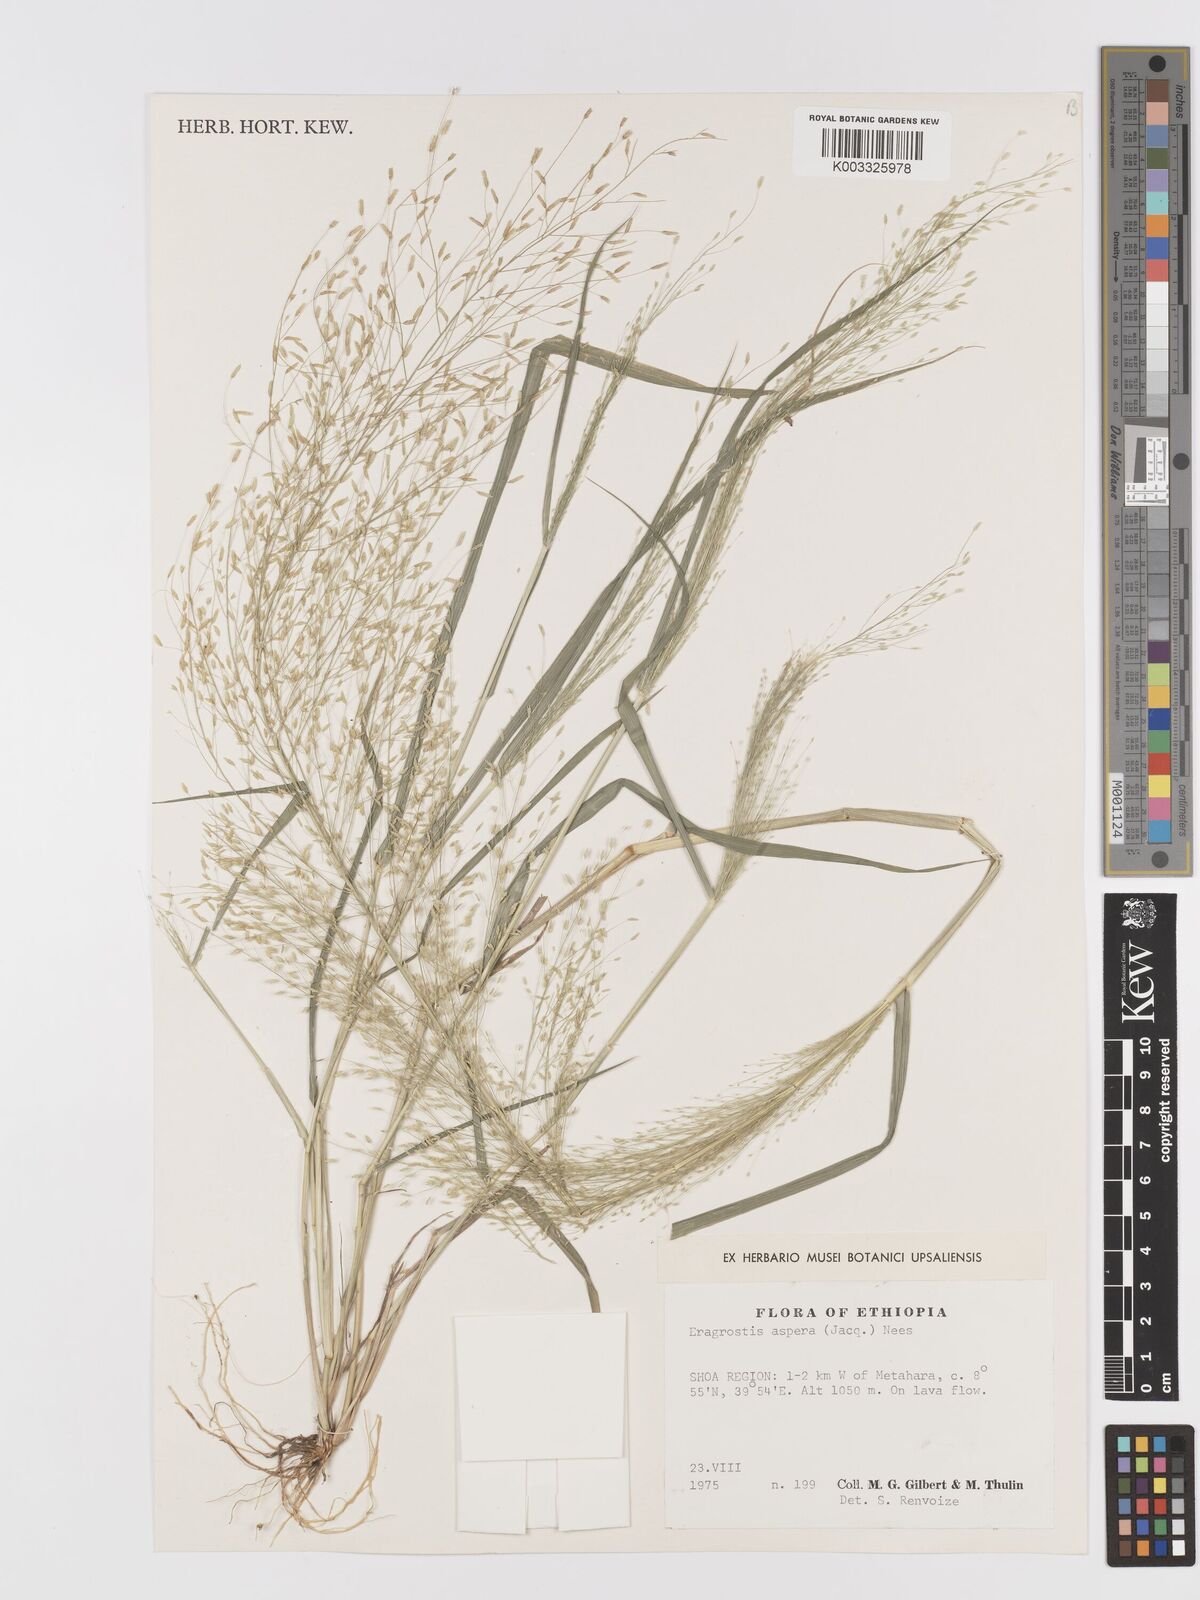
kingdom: Plantae
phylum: Tracheophyta
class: Liliopsida
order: Poales
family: Poaceae
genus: Eragrostis
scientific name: Eragrostis aspera
